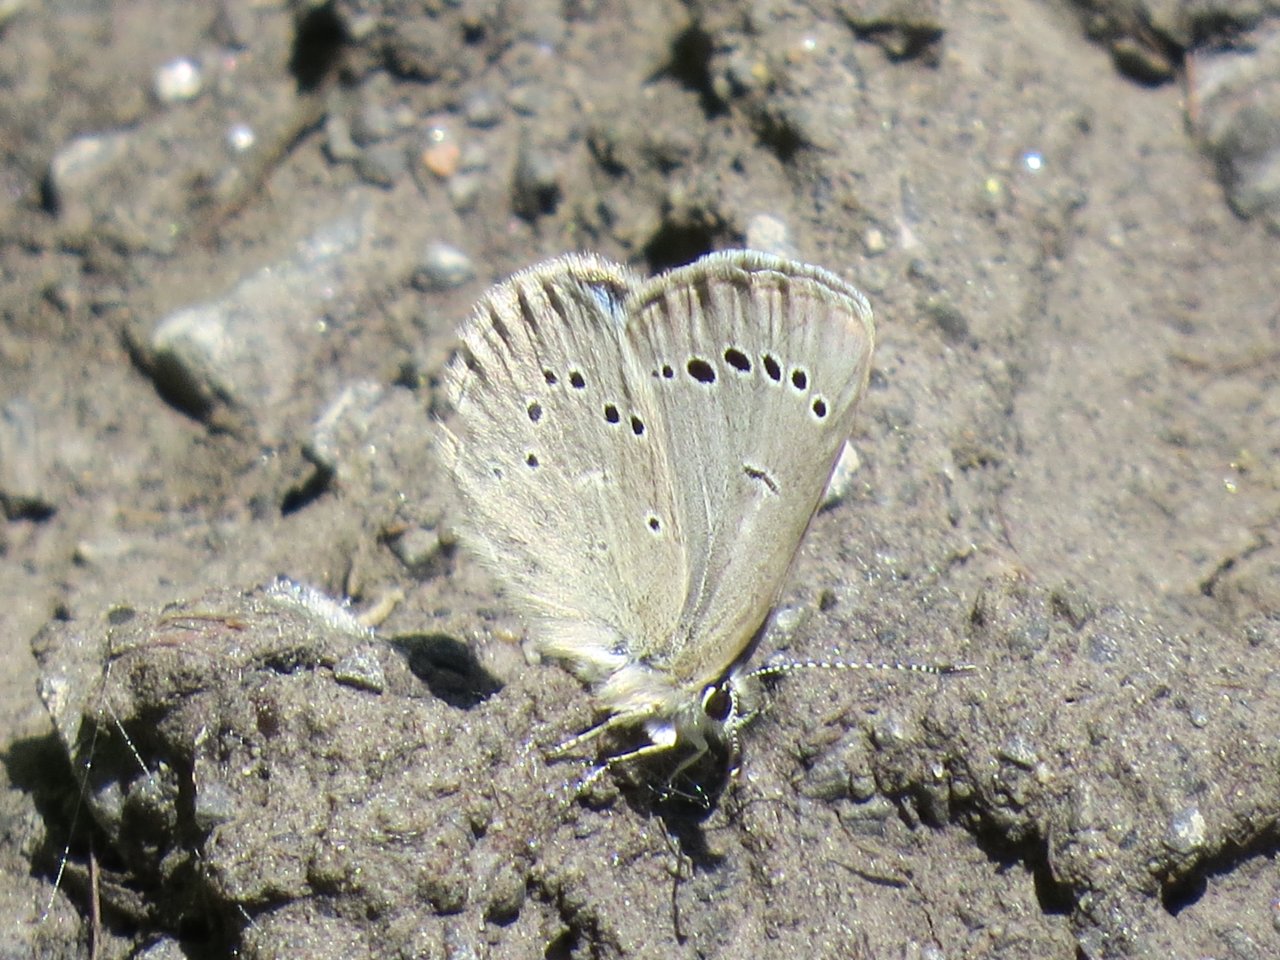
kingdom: Animalia
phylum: Arthropoda
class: Insecta
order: Lepidoptera
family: Lycaenidae
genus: Glaucopsyche
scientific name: Glaucopsyche lygdamus
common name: Silvery Blue
